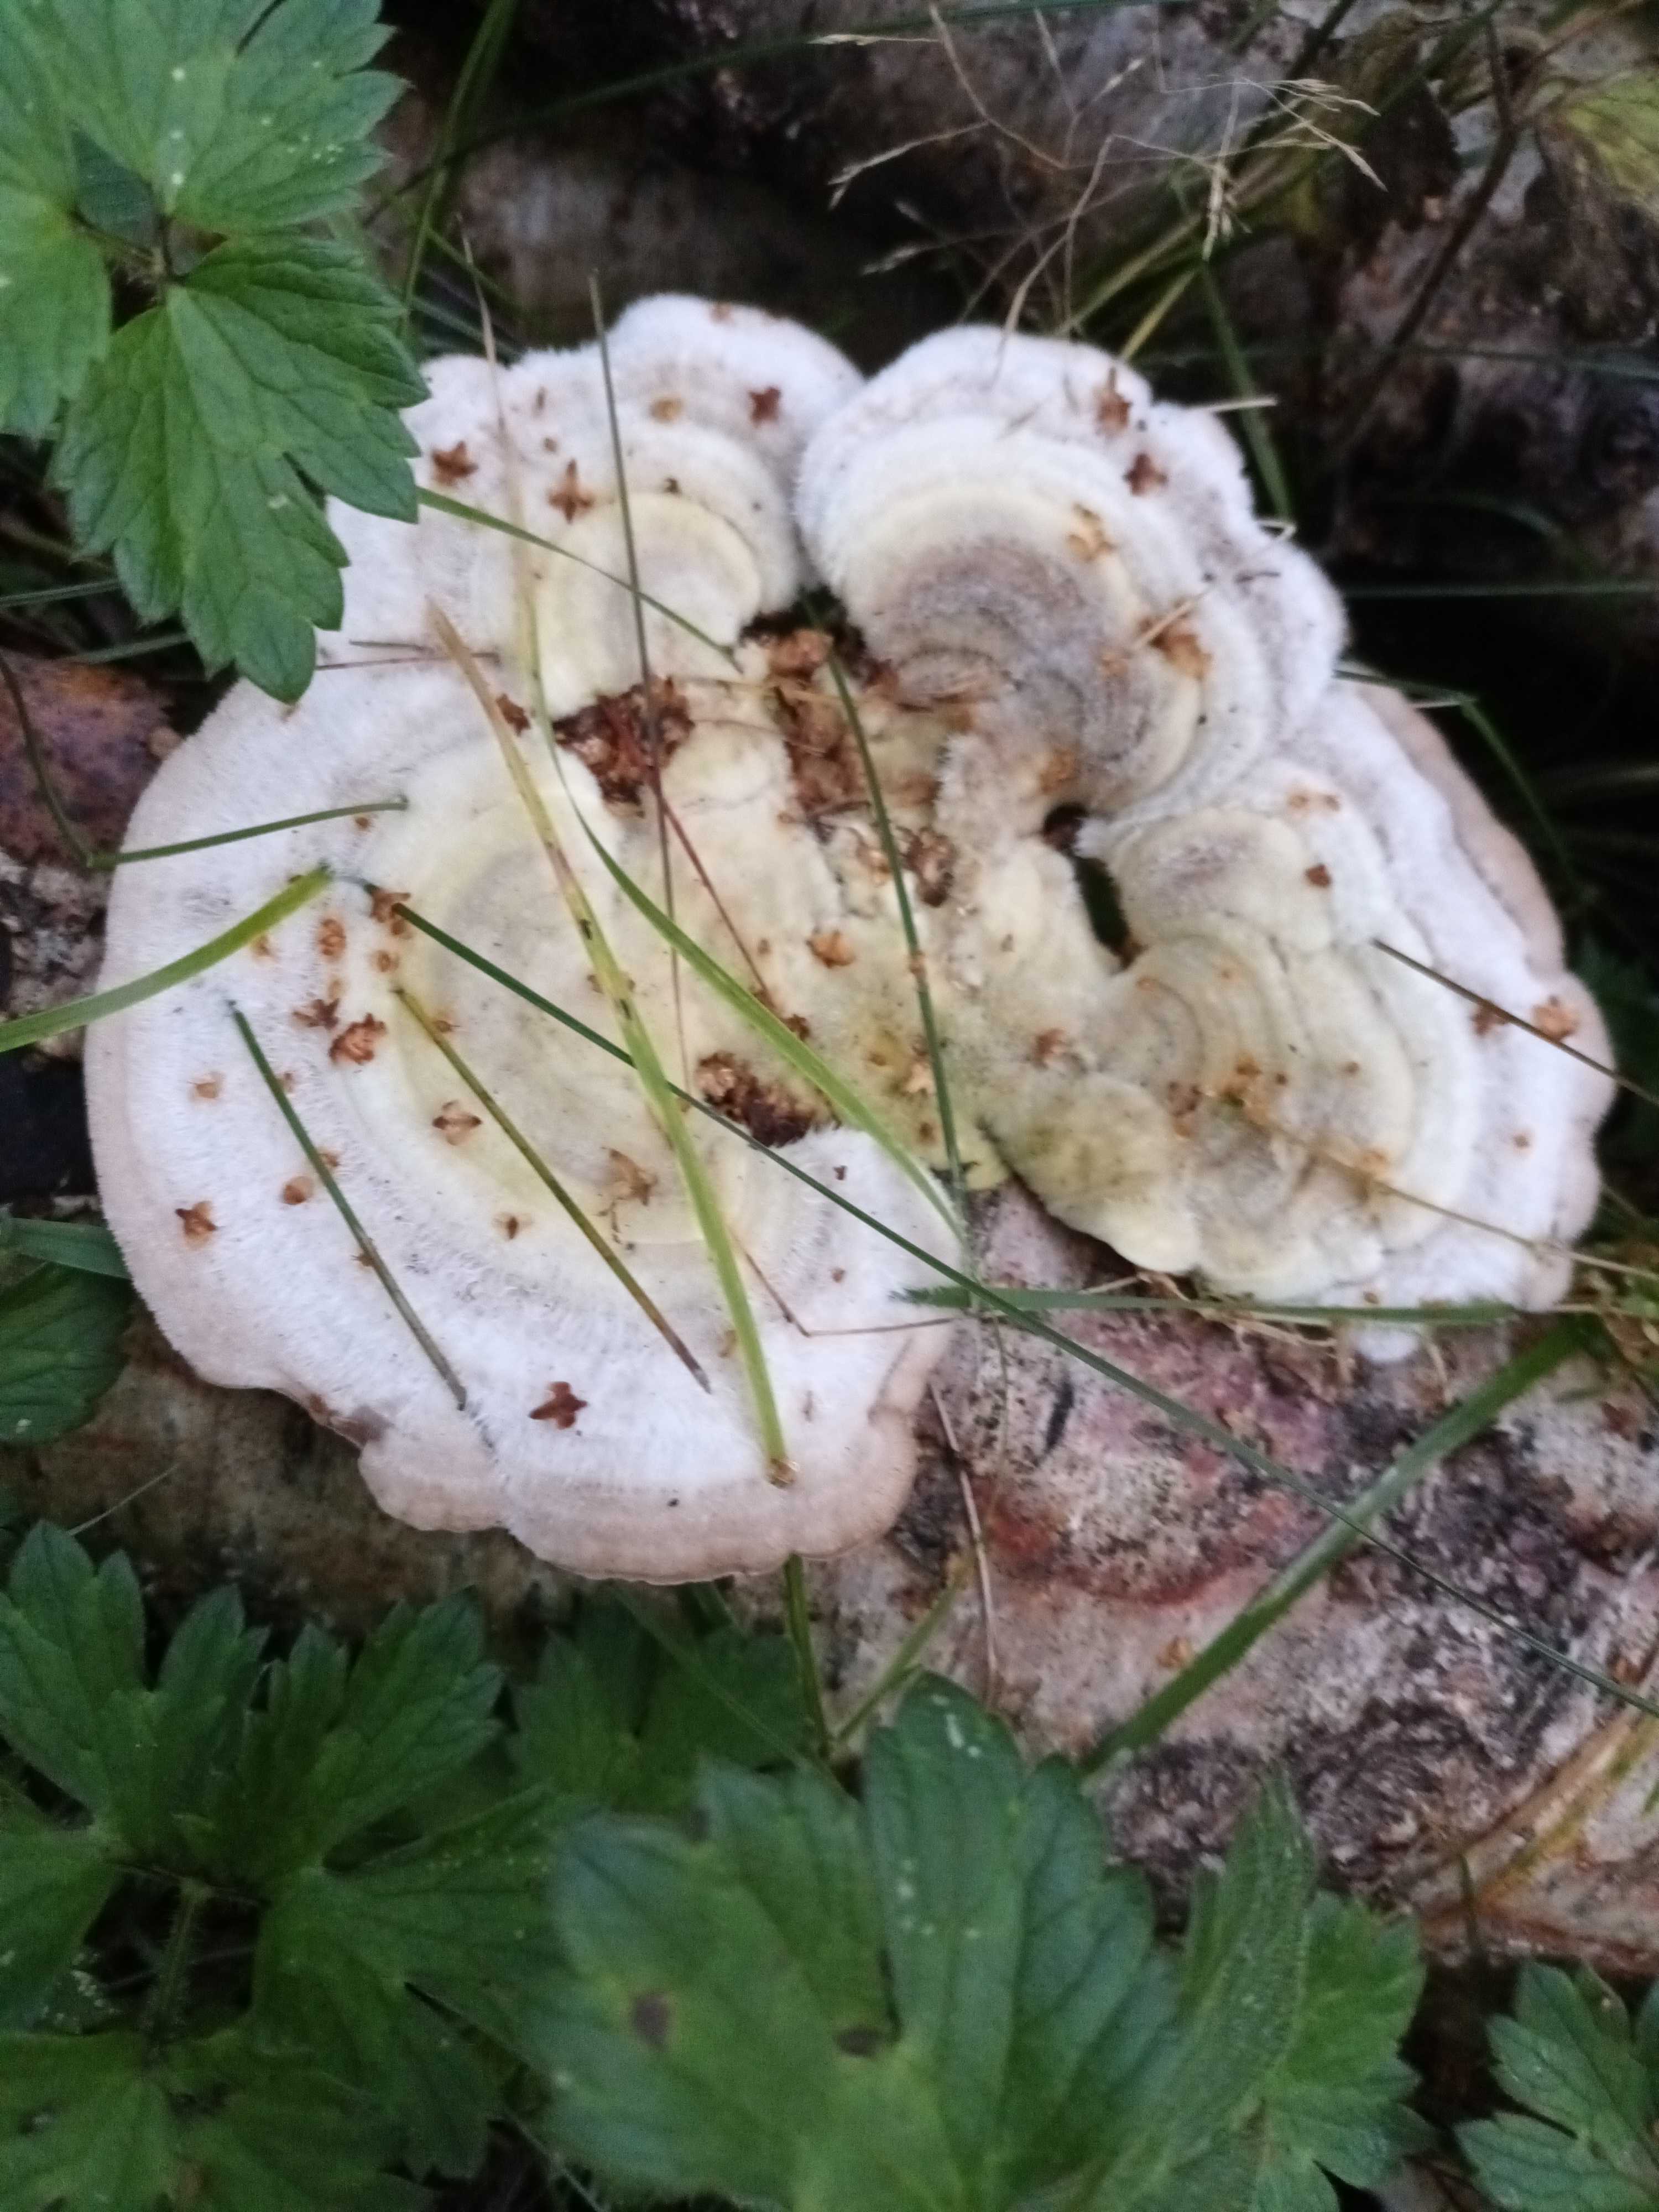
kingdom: Fungi
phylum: Basidiomycota
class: Agaricomycetes
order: Polyporales
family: Polyporaceae
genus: Trametes
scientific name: Trametes hirsuta
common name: håret læderporesvamp
